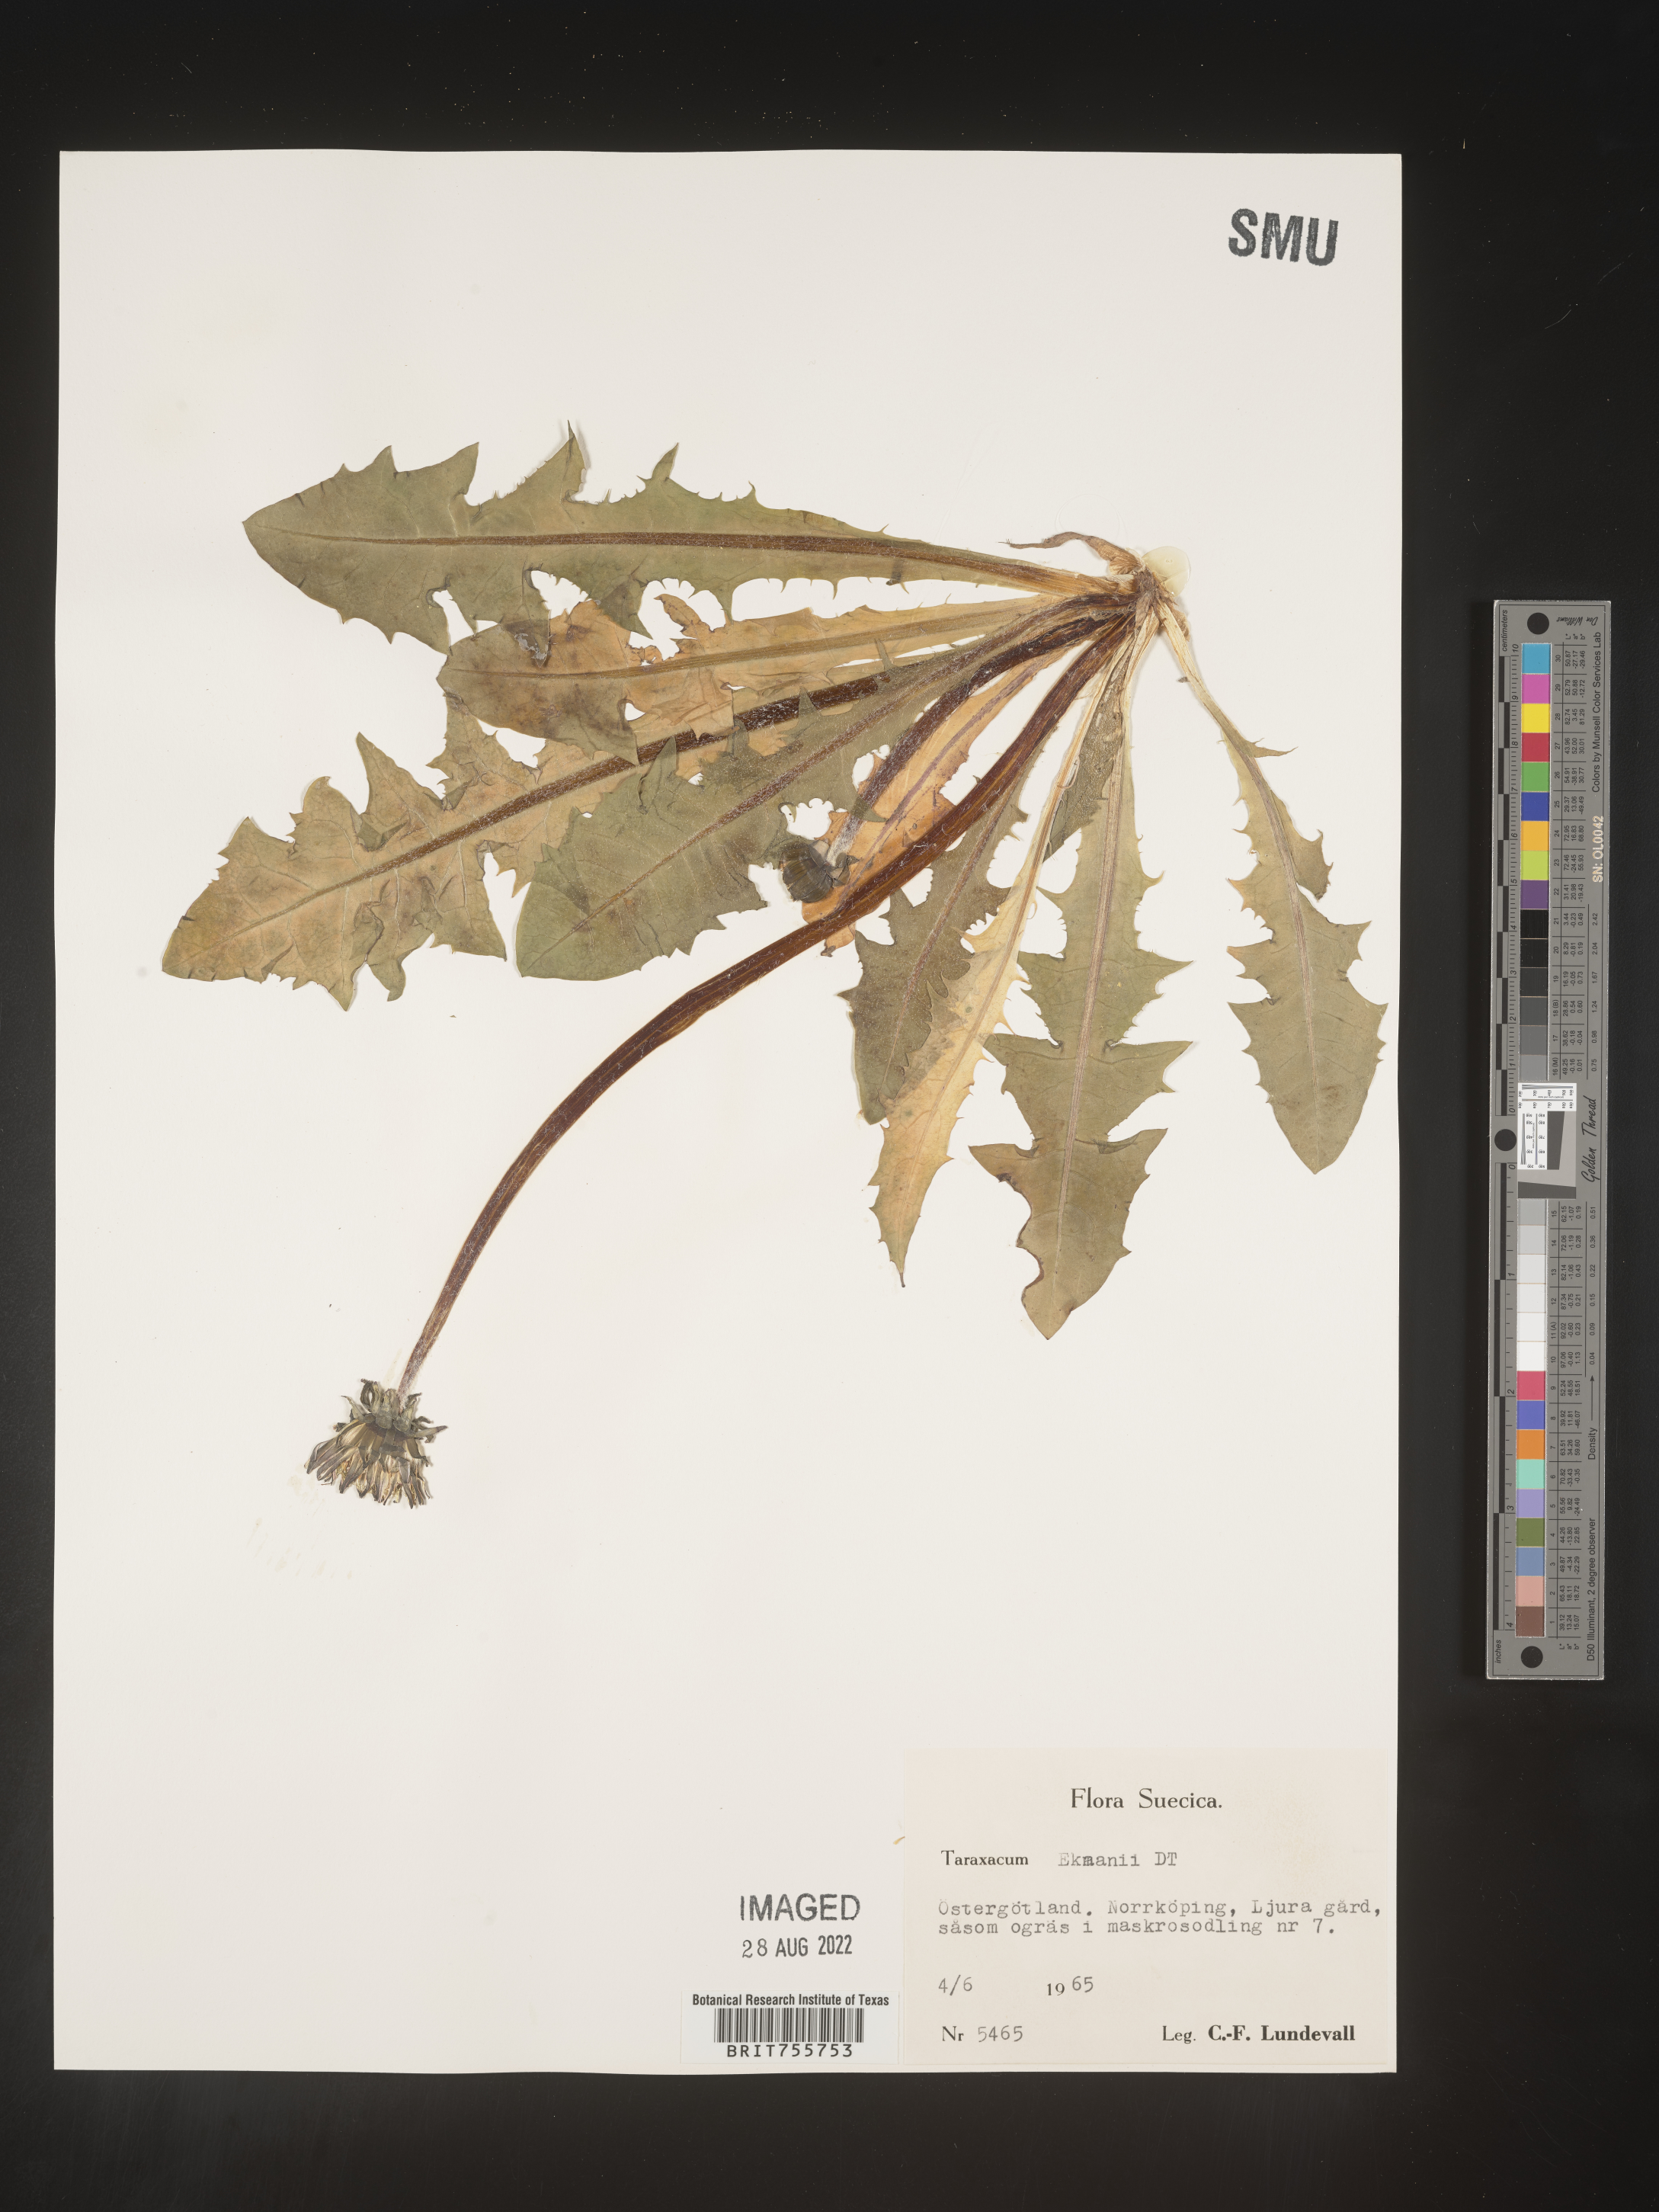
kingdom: Plantae
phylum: Tracheophyta
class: Magnoliopsida
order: Asterales
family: Asteraceae
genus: Taraxacum
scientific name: Taraxacum
